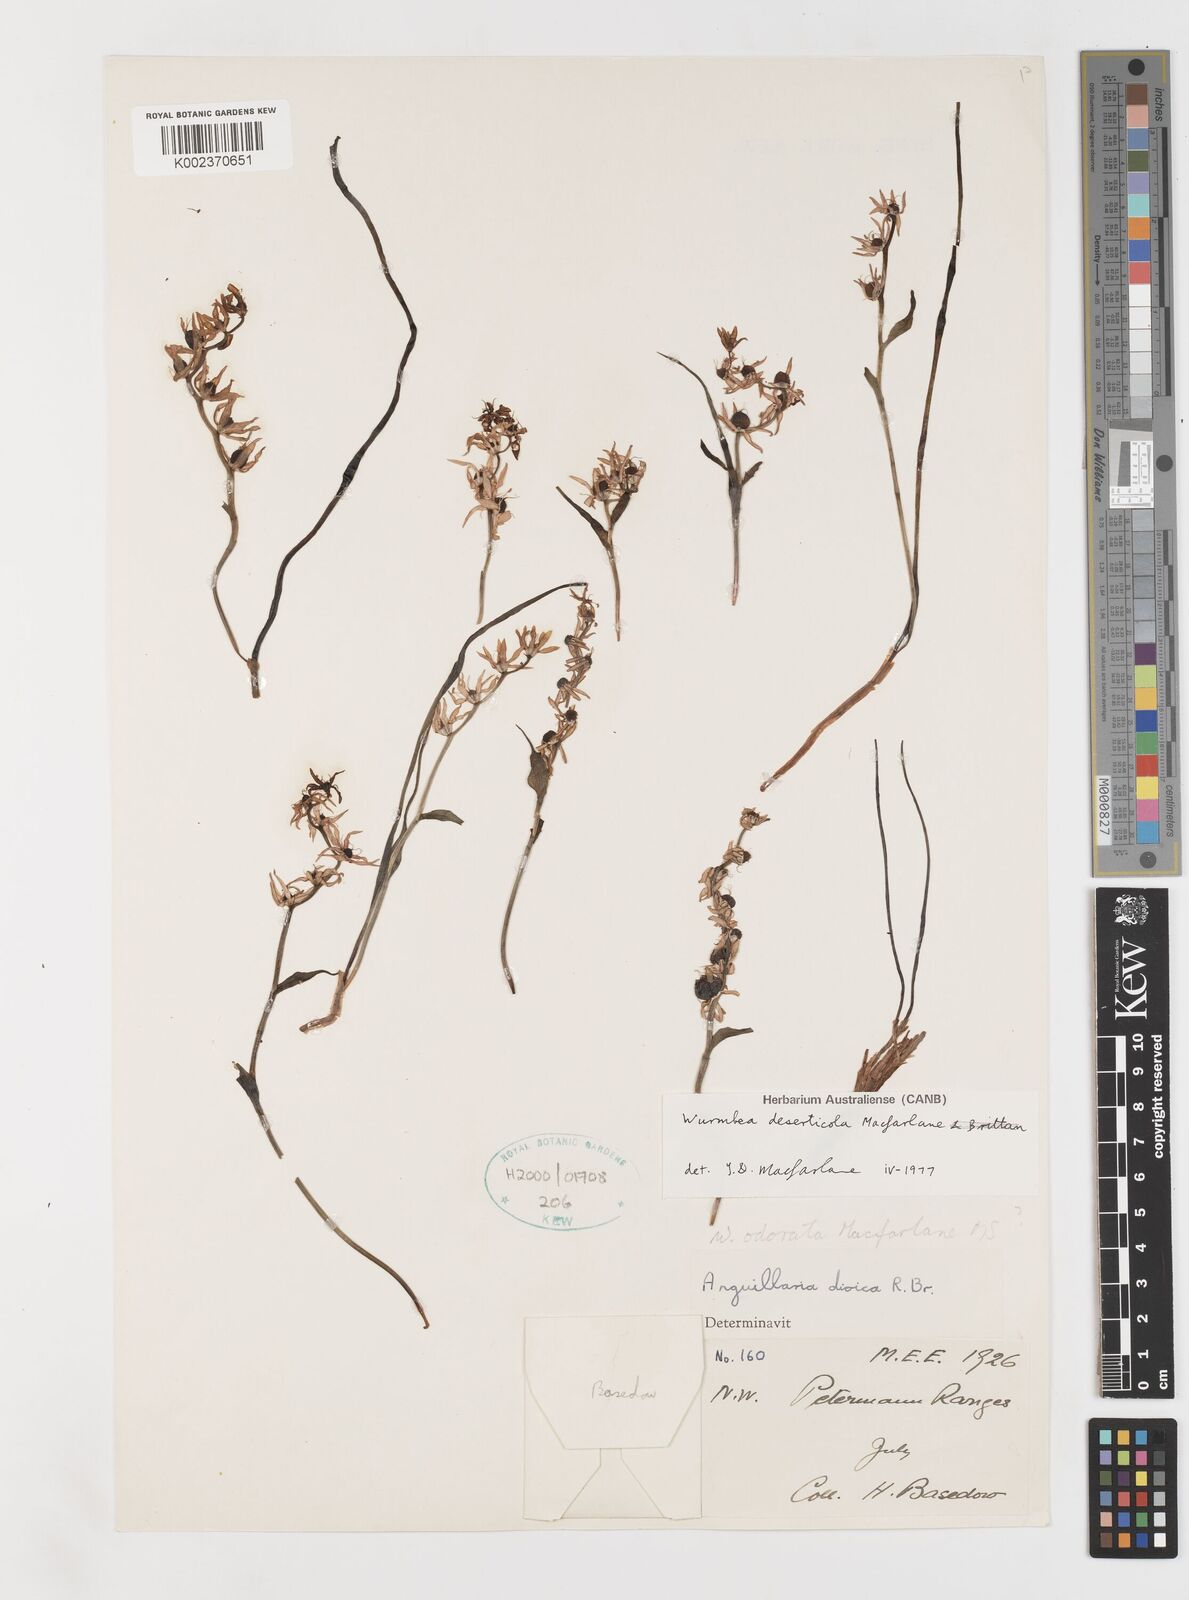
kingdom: Plantae
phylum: Tracheophyta
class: Liliopsida
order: Liliales
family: Colchicaceae
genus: Wurmbea
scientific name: Wurmbea deserticola
